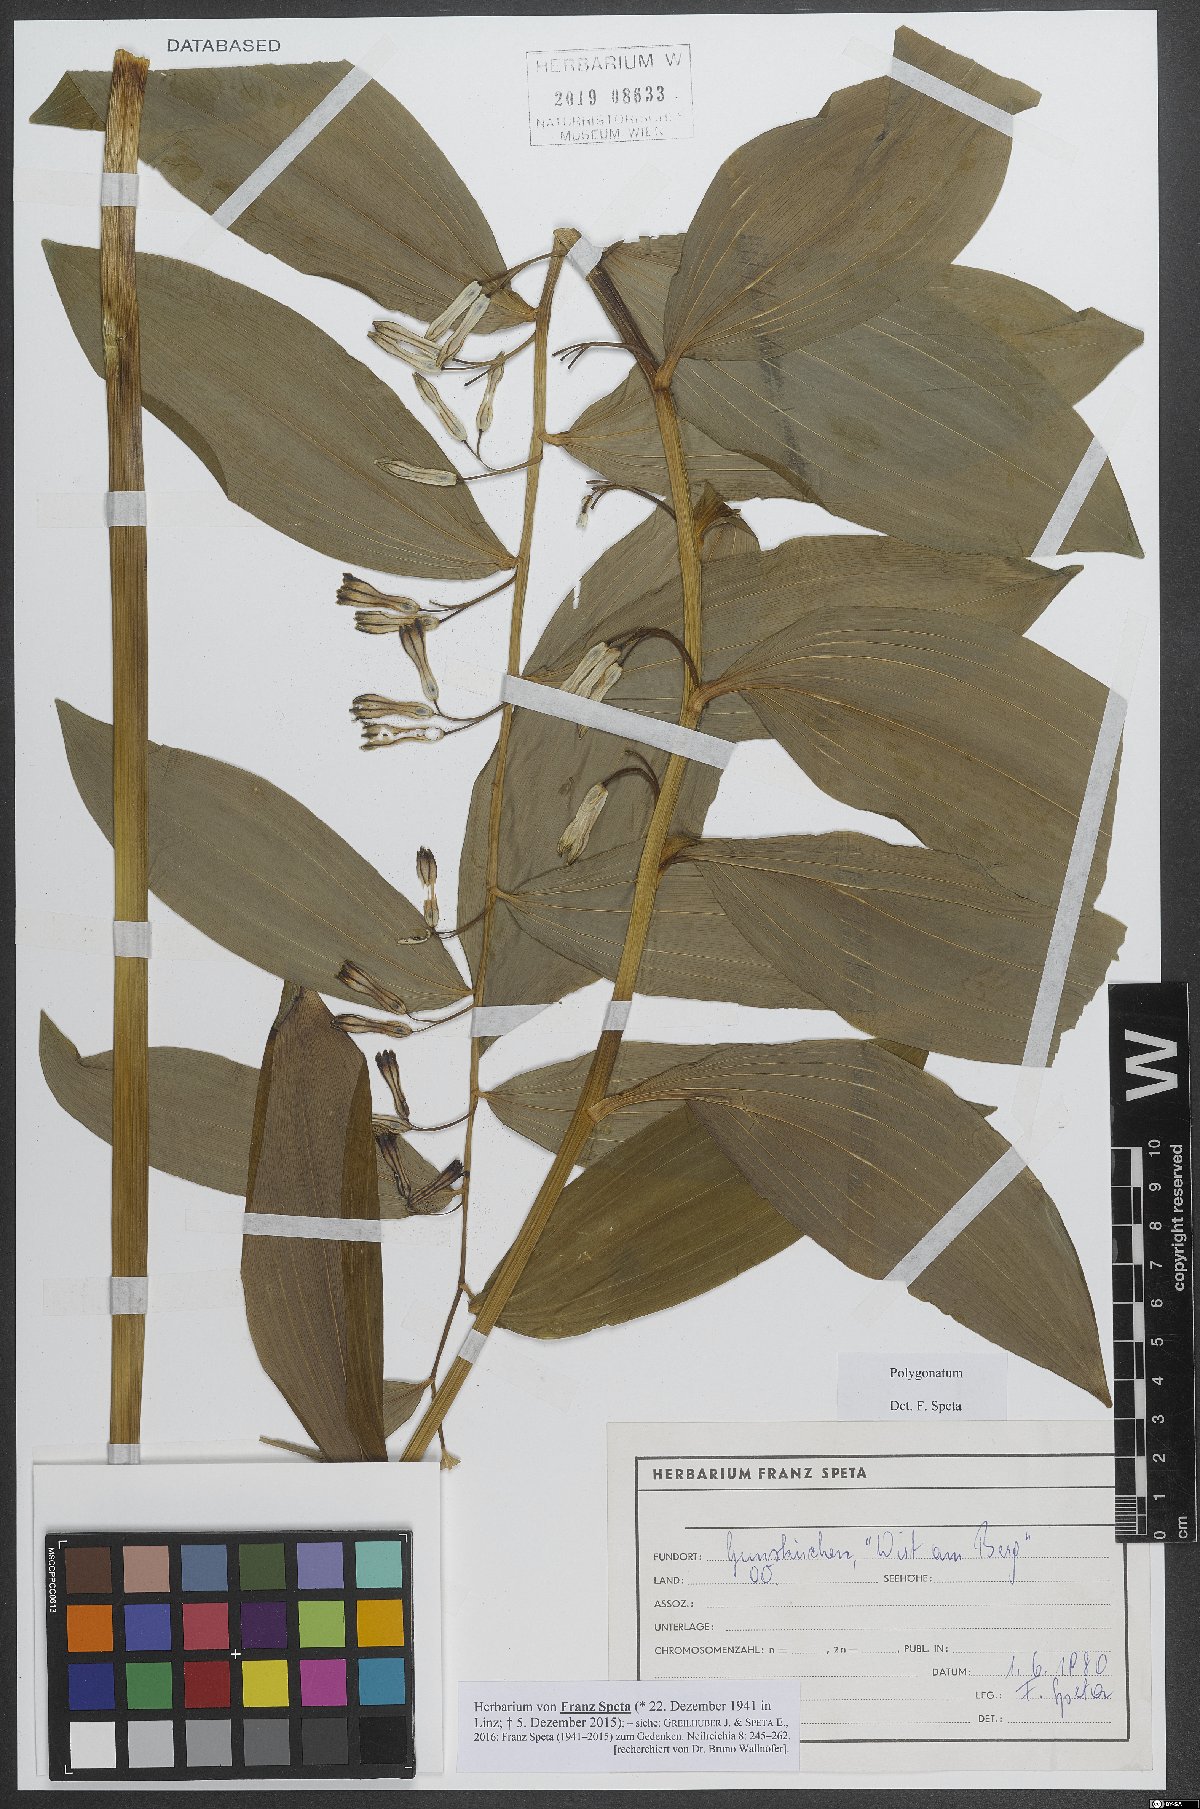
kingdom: Plantae
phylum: Tracheophyta
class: Liliopsida
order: Asparagales
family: Asparagaceae
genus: Polygonatum
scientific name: Polygonatum
